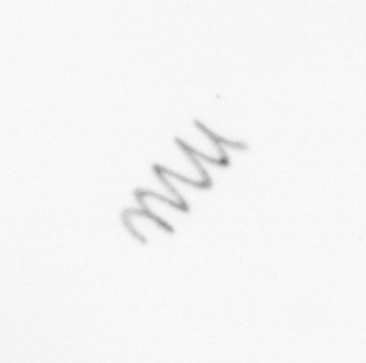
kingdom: Chromista
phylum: Ochrophyta
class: Bacillariophyceae
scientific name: Bacillariophyceae
